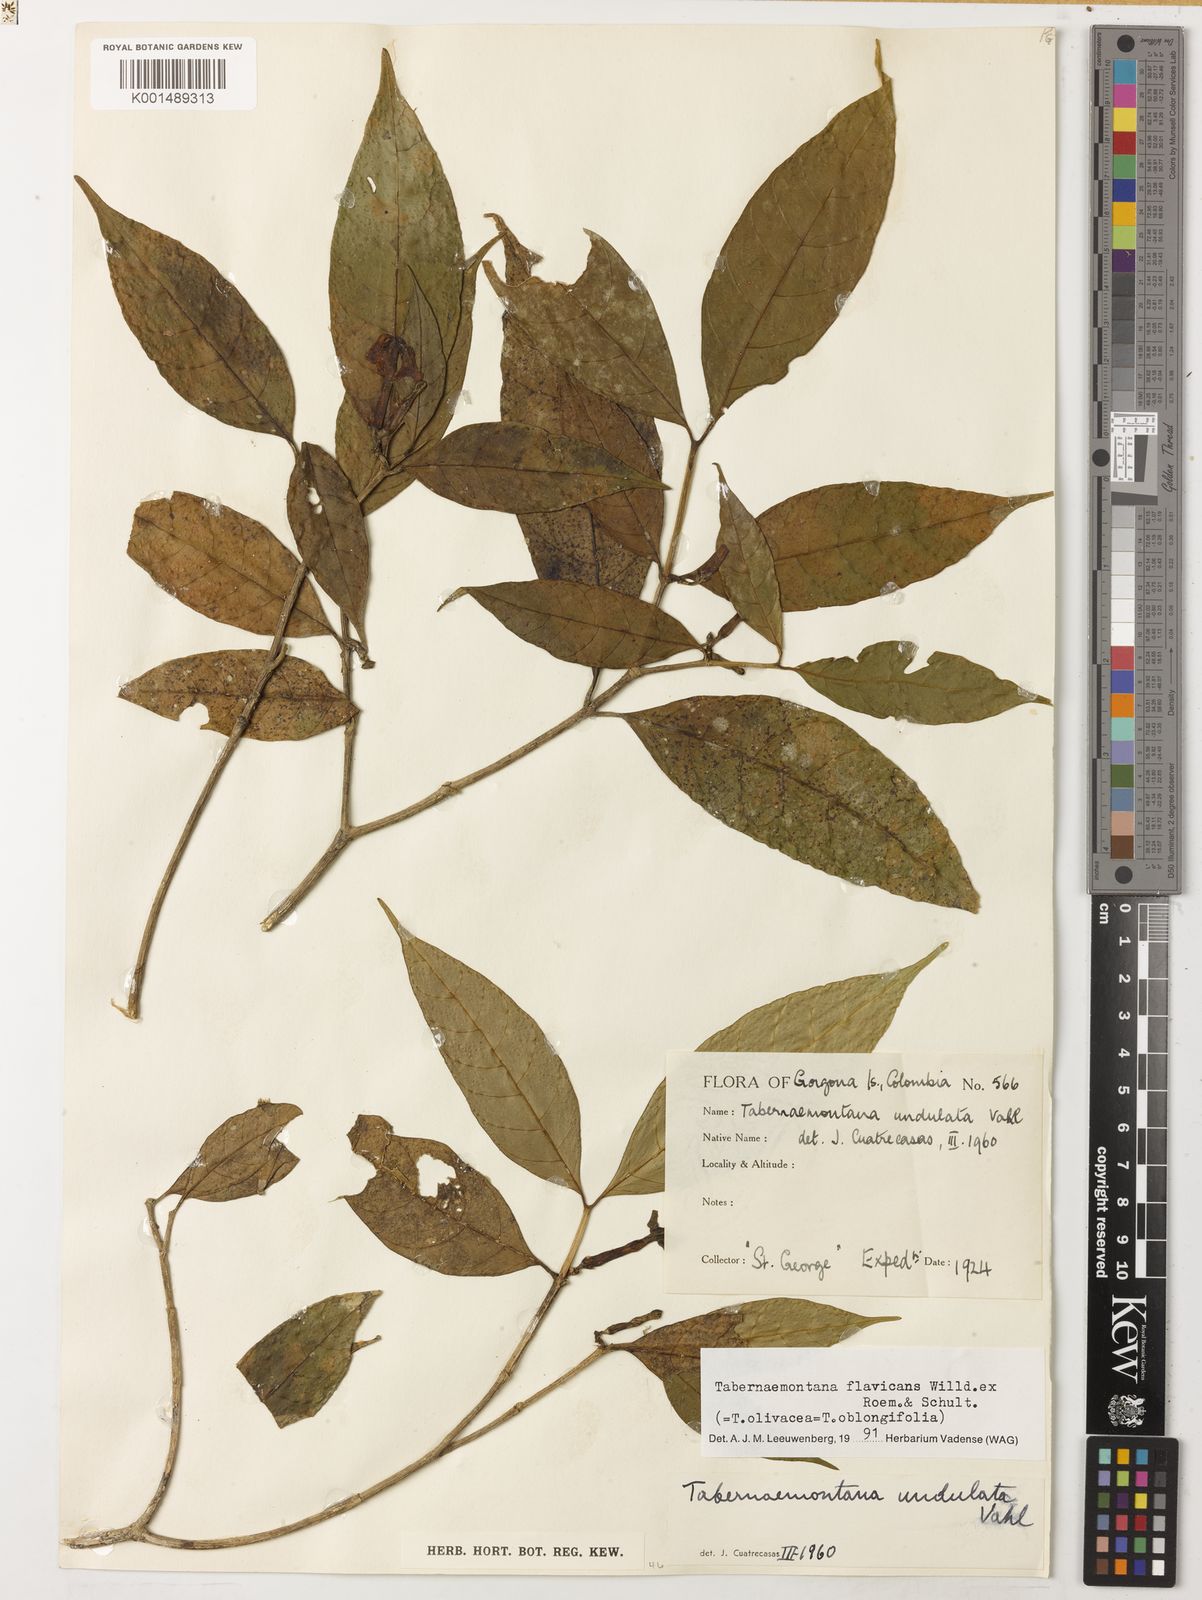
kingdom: Plantae
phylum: Tracheophyta
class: Magnoliopsida
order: Gentianales
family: Apocynaceae
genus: Tabernaemontana
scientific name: Tabernaemontana flavicans
